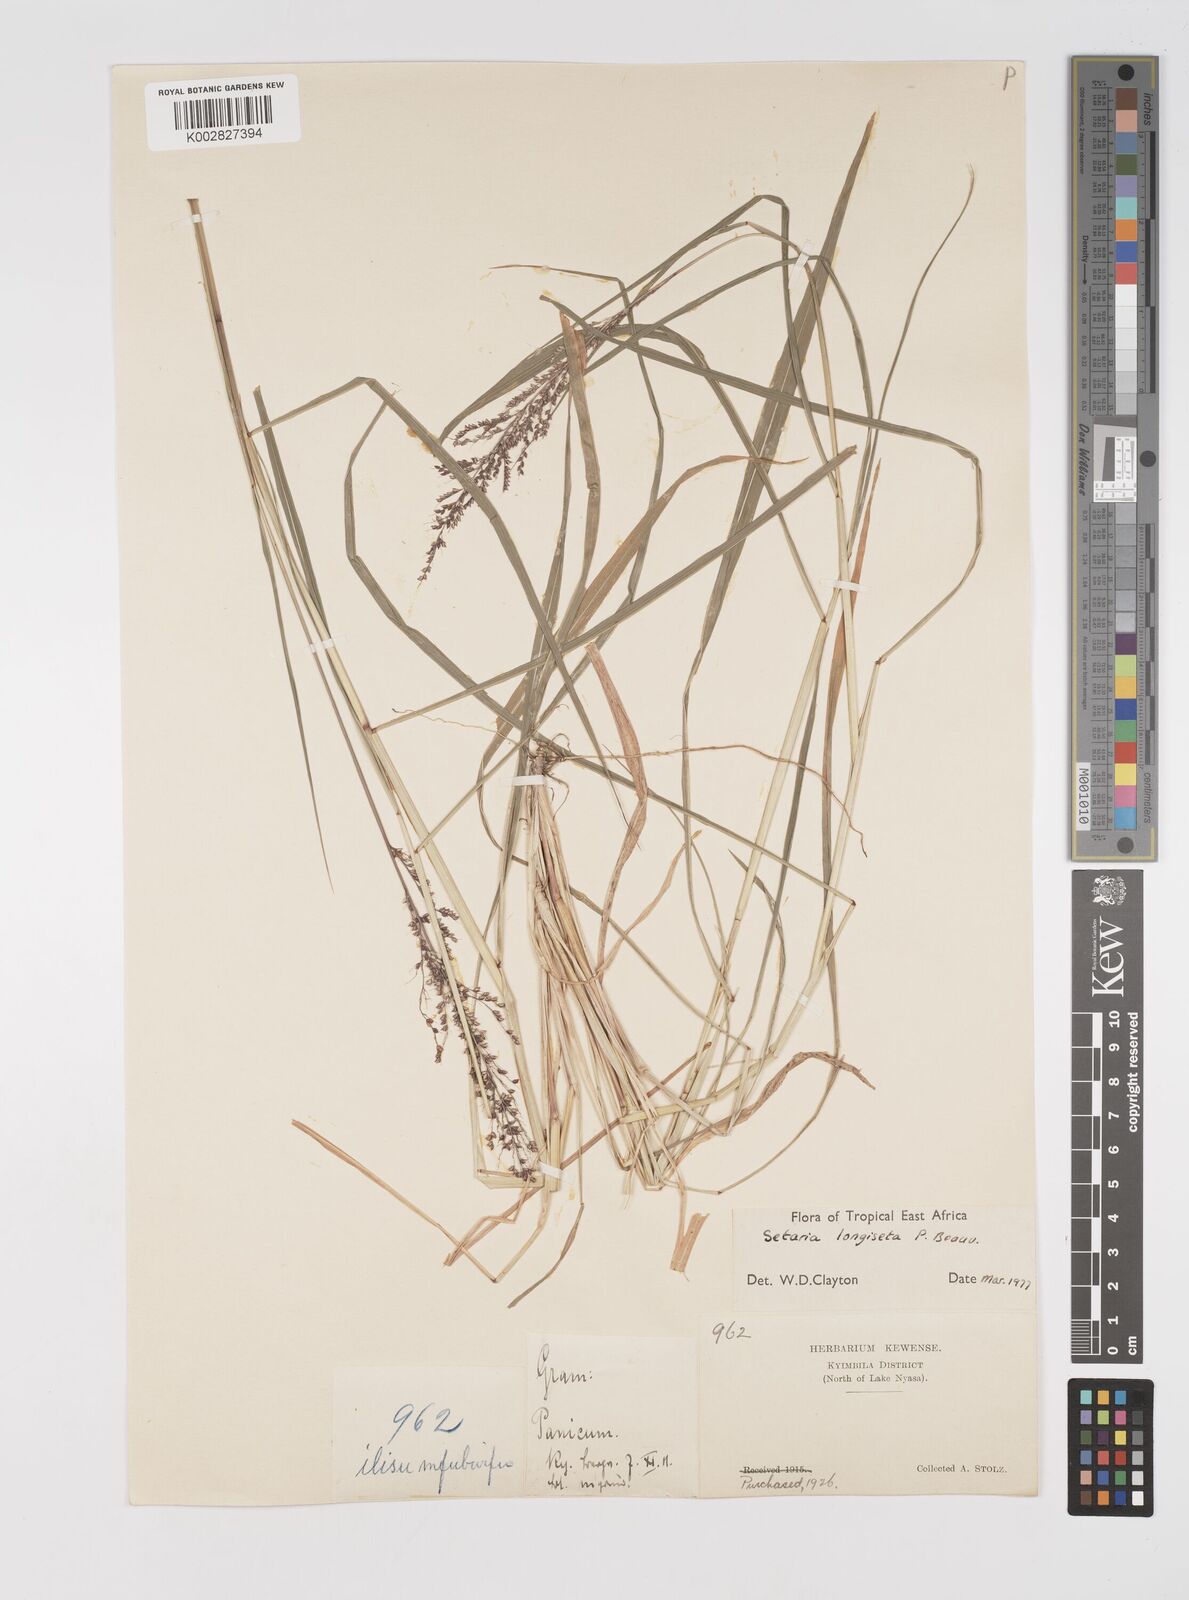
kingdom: Plantae
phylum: Tracheophyta
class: Liliopsida
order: Poales
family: Poaceae
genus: Setaria
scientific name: Setaria longiseta
